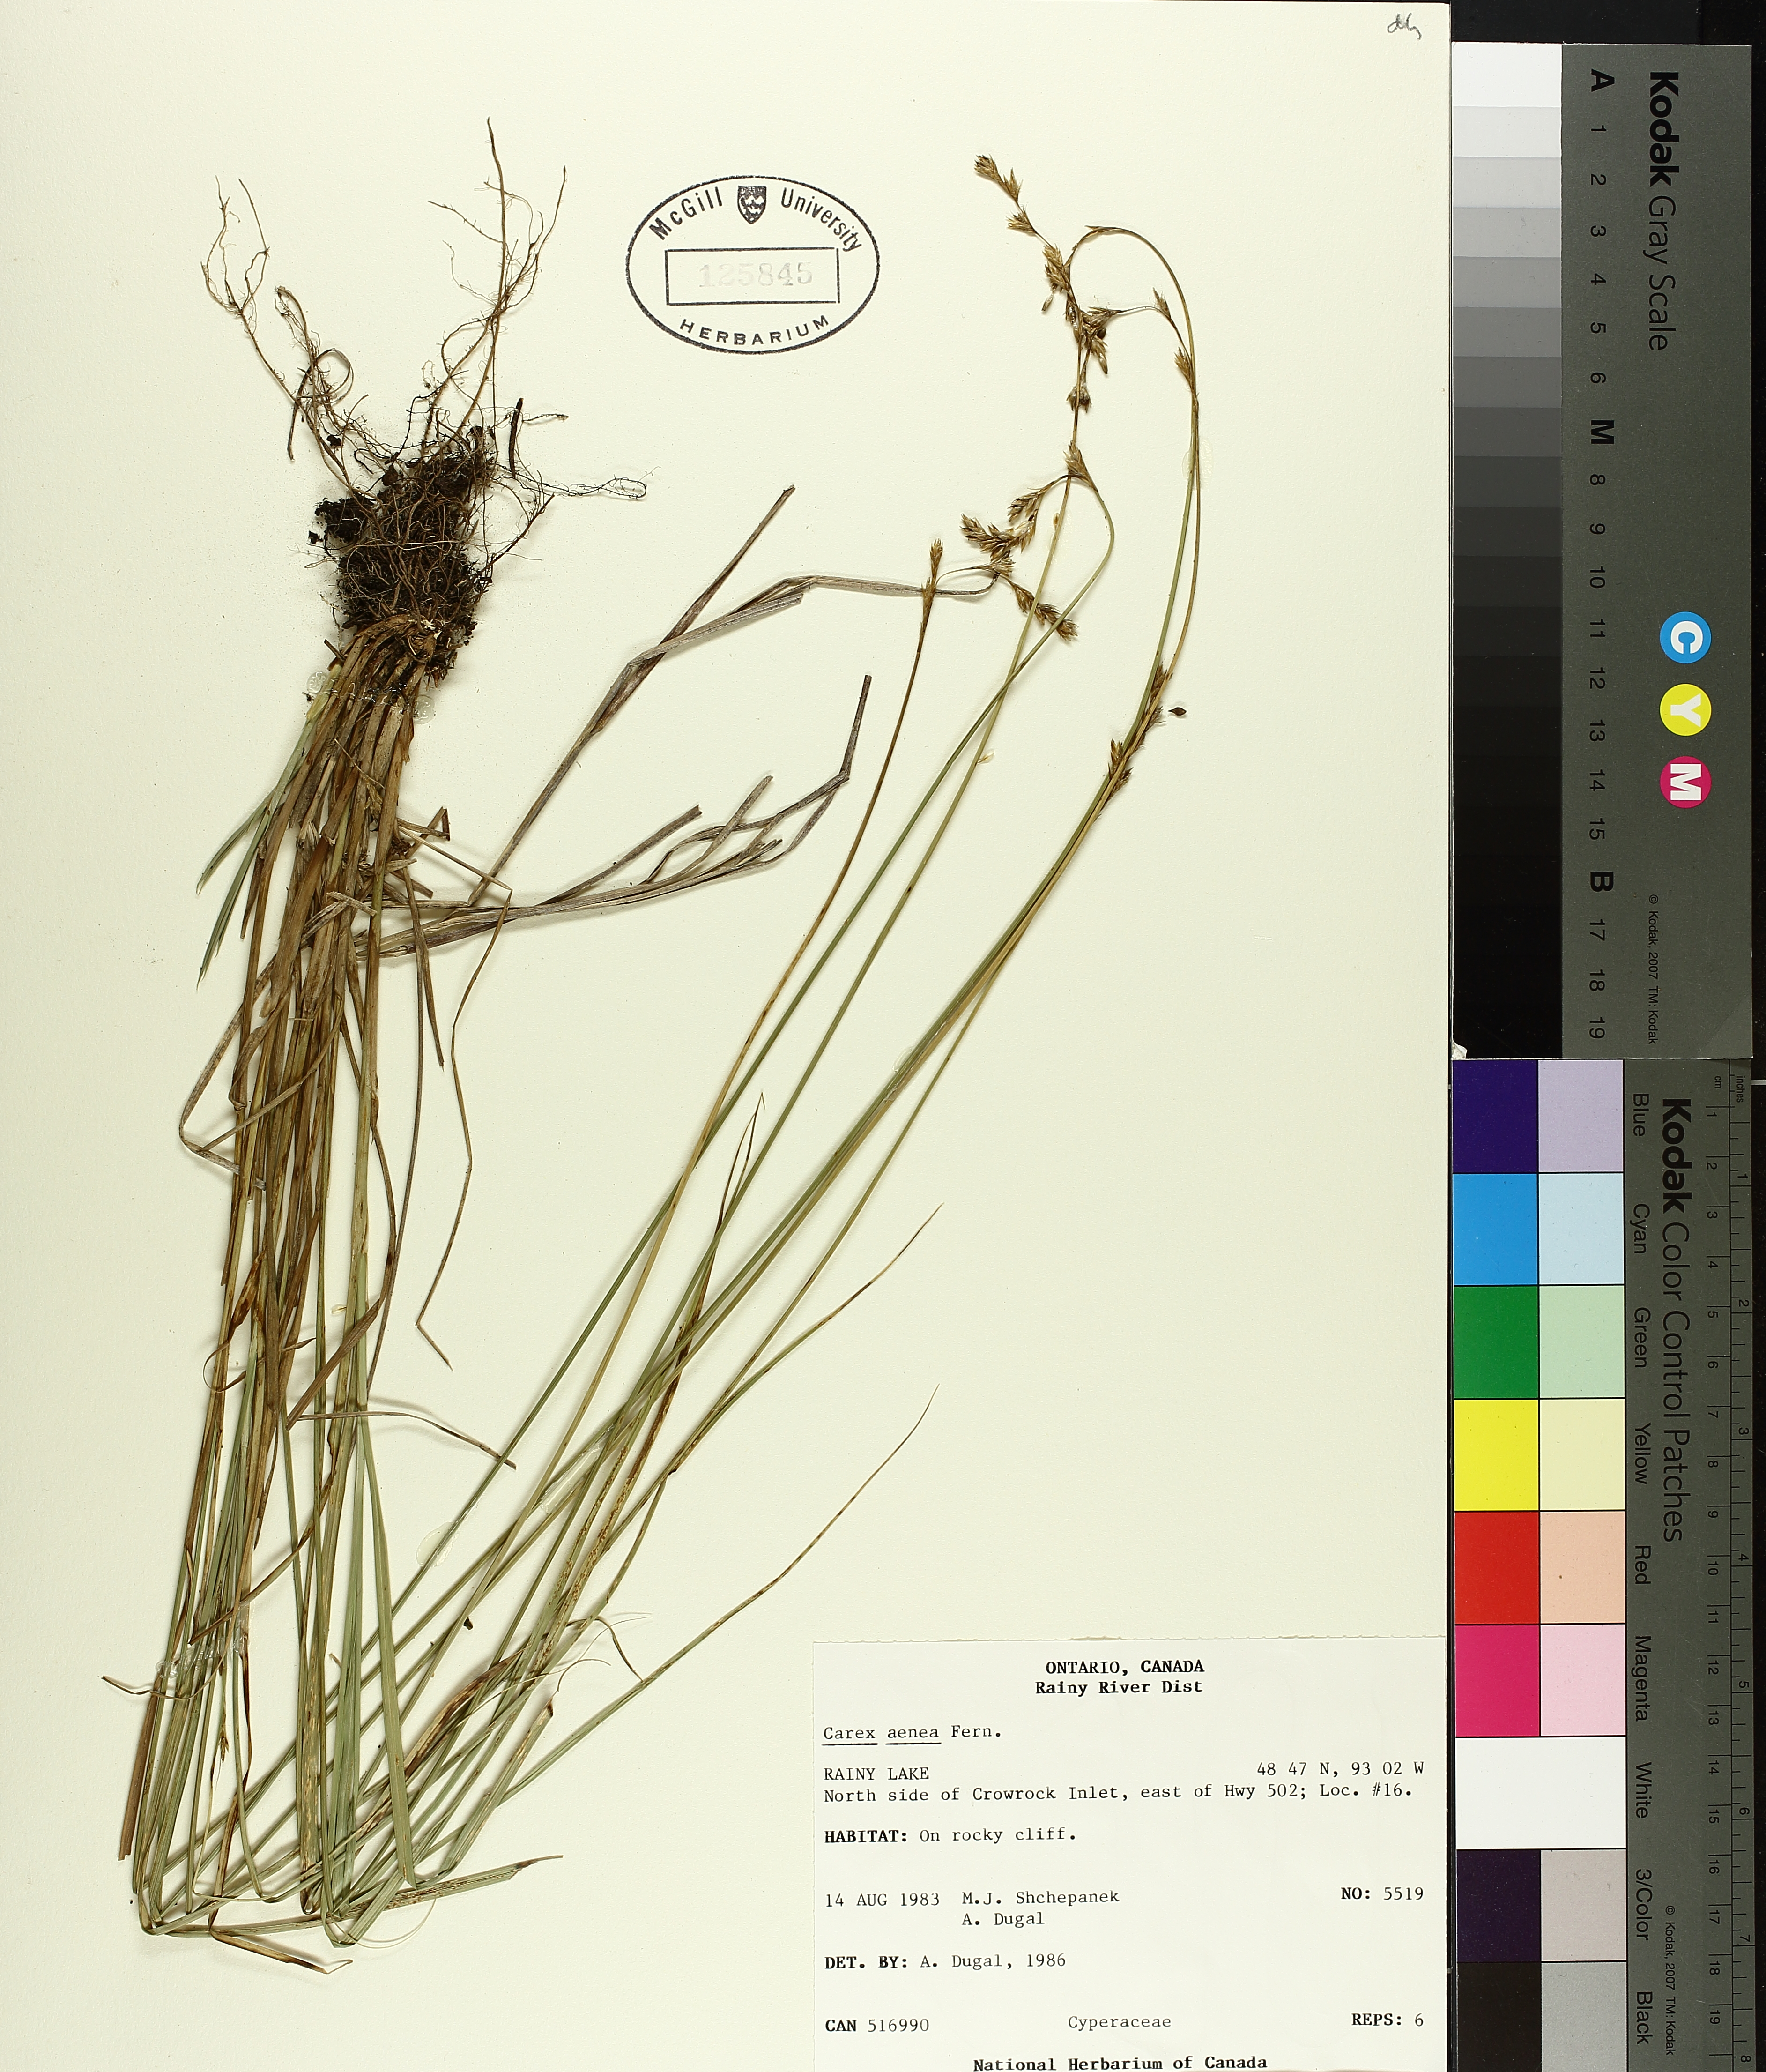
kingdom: Plantae
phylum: Tracheophyta
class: Liliopsida
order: Poales
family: Cyperaceae
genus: Carex
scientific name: Carex foenea
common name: Bronze sedge
